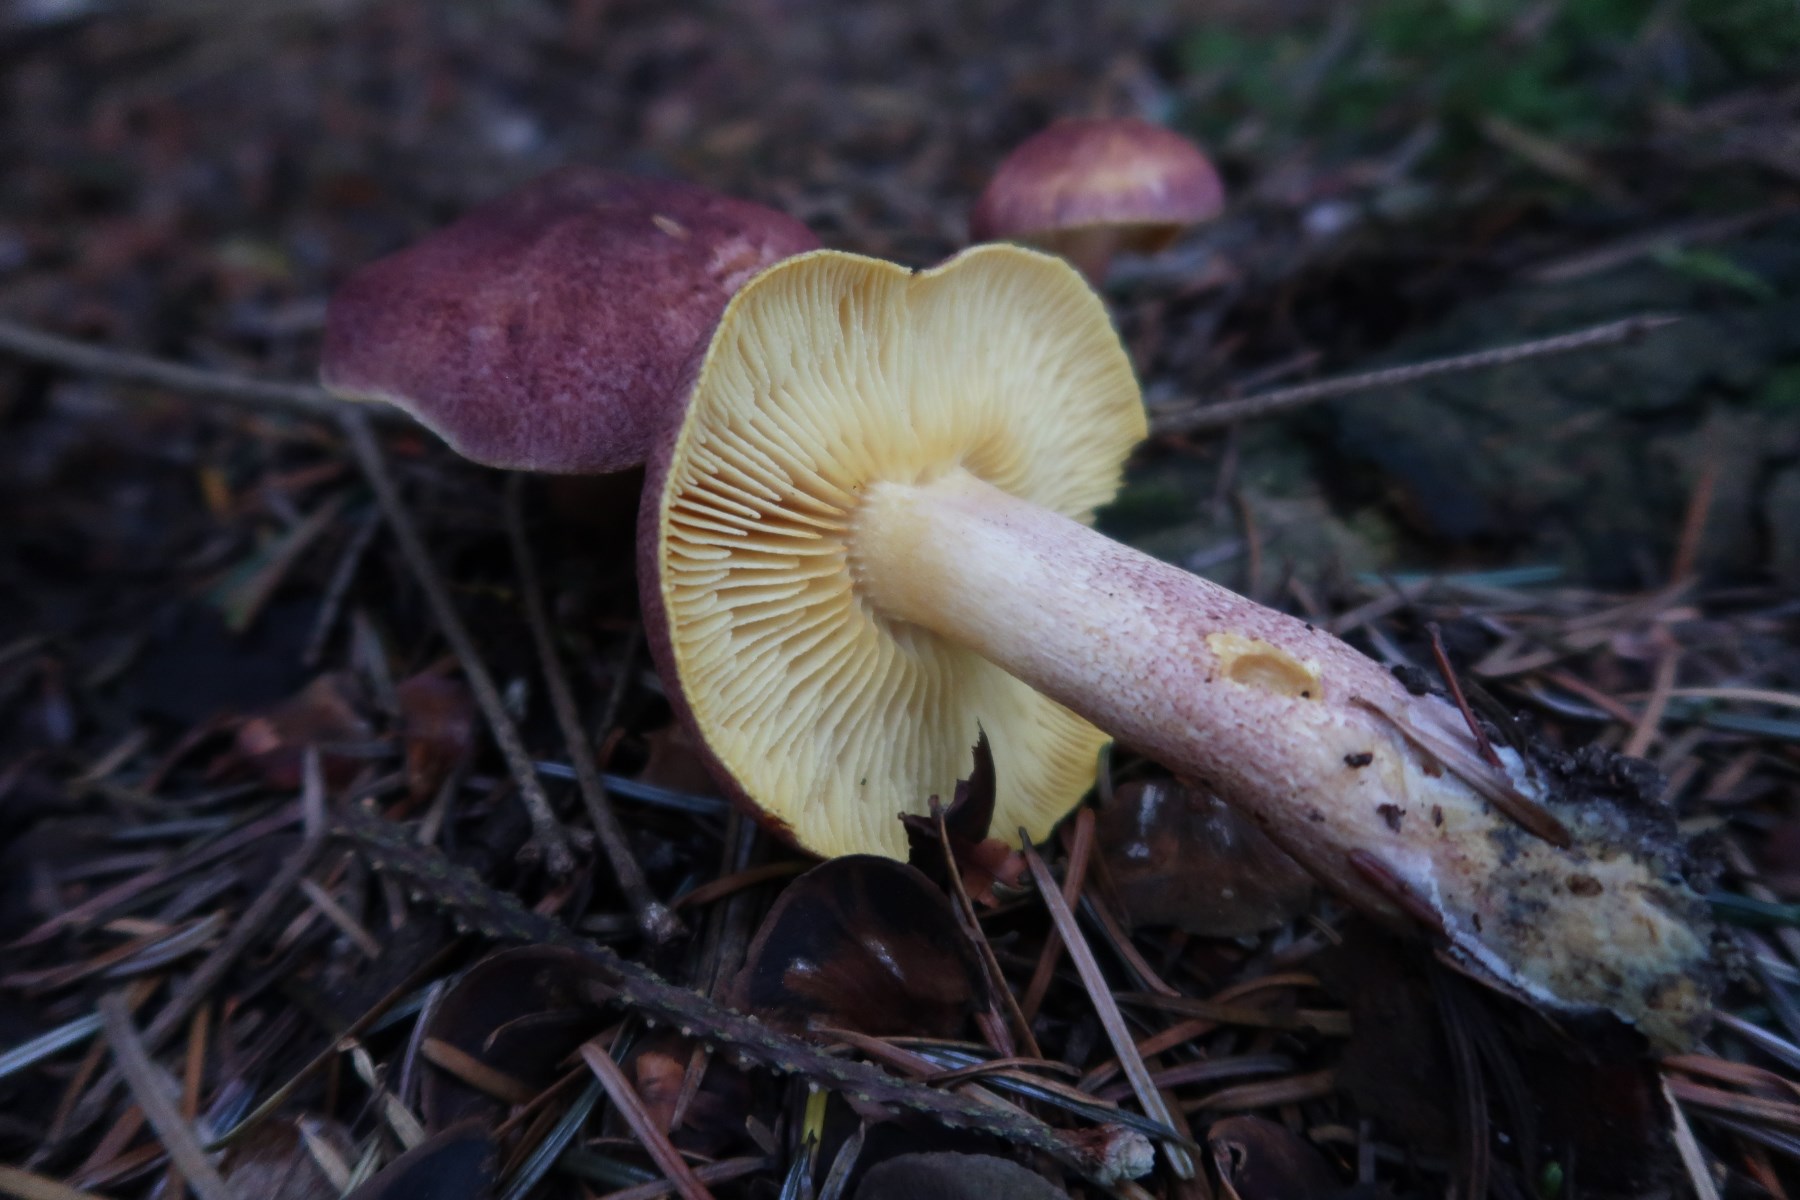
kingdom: Fungi
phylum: Basidiomycota
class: Agaricomycetes
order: Agaricales
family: Tricholomataceae
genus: Tricholomopsis
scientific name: Tricholomopsis rutilans
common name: purpur-væbnerhat
